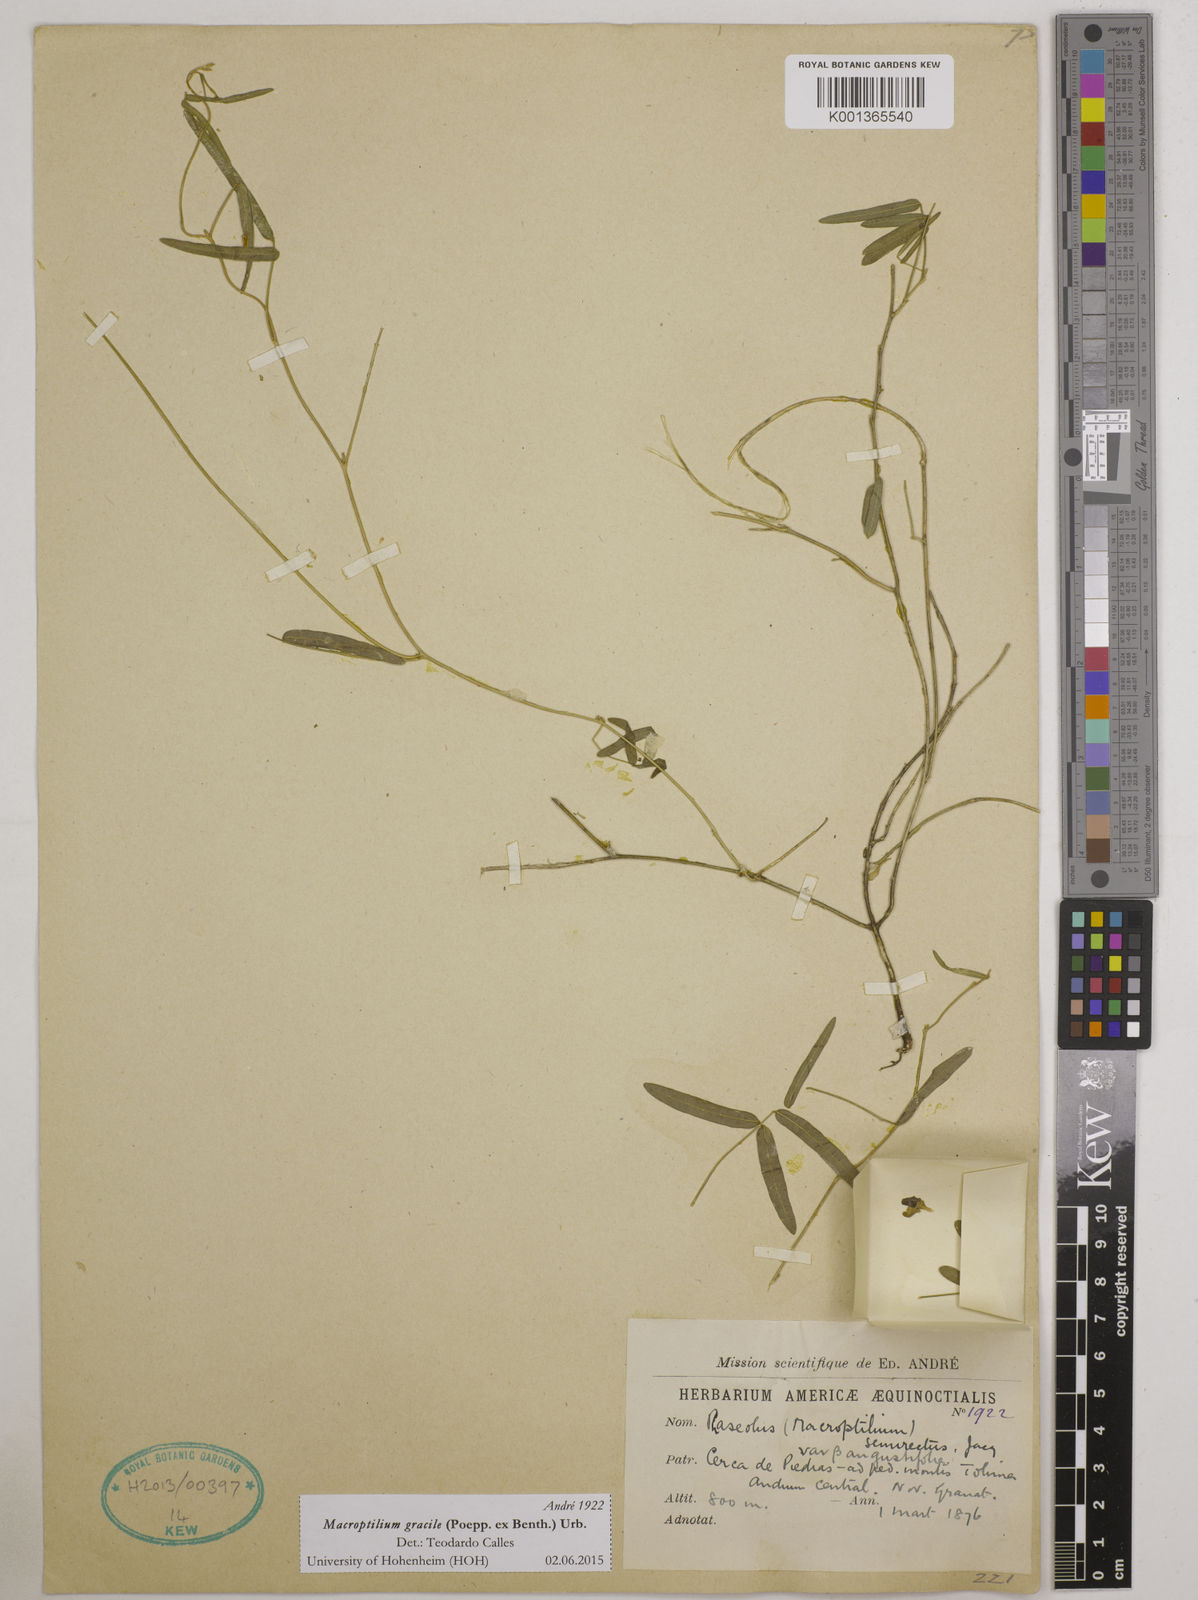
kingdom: Plantae
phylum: Tracheophyta
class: Magnoliopsida
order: Fabales
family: Fabaceae
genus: Macroptilium
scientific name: Macroptilium gracile
